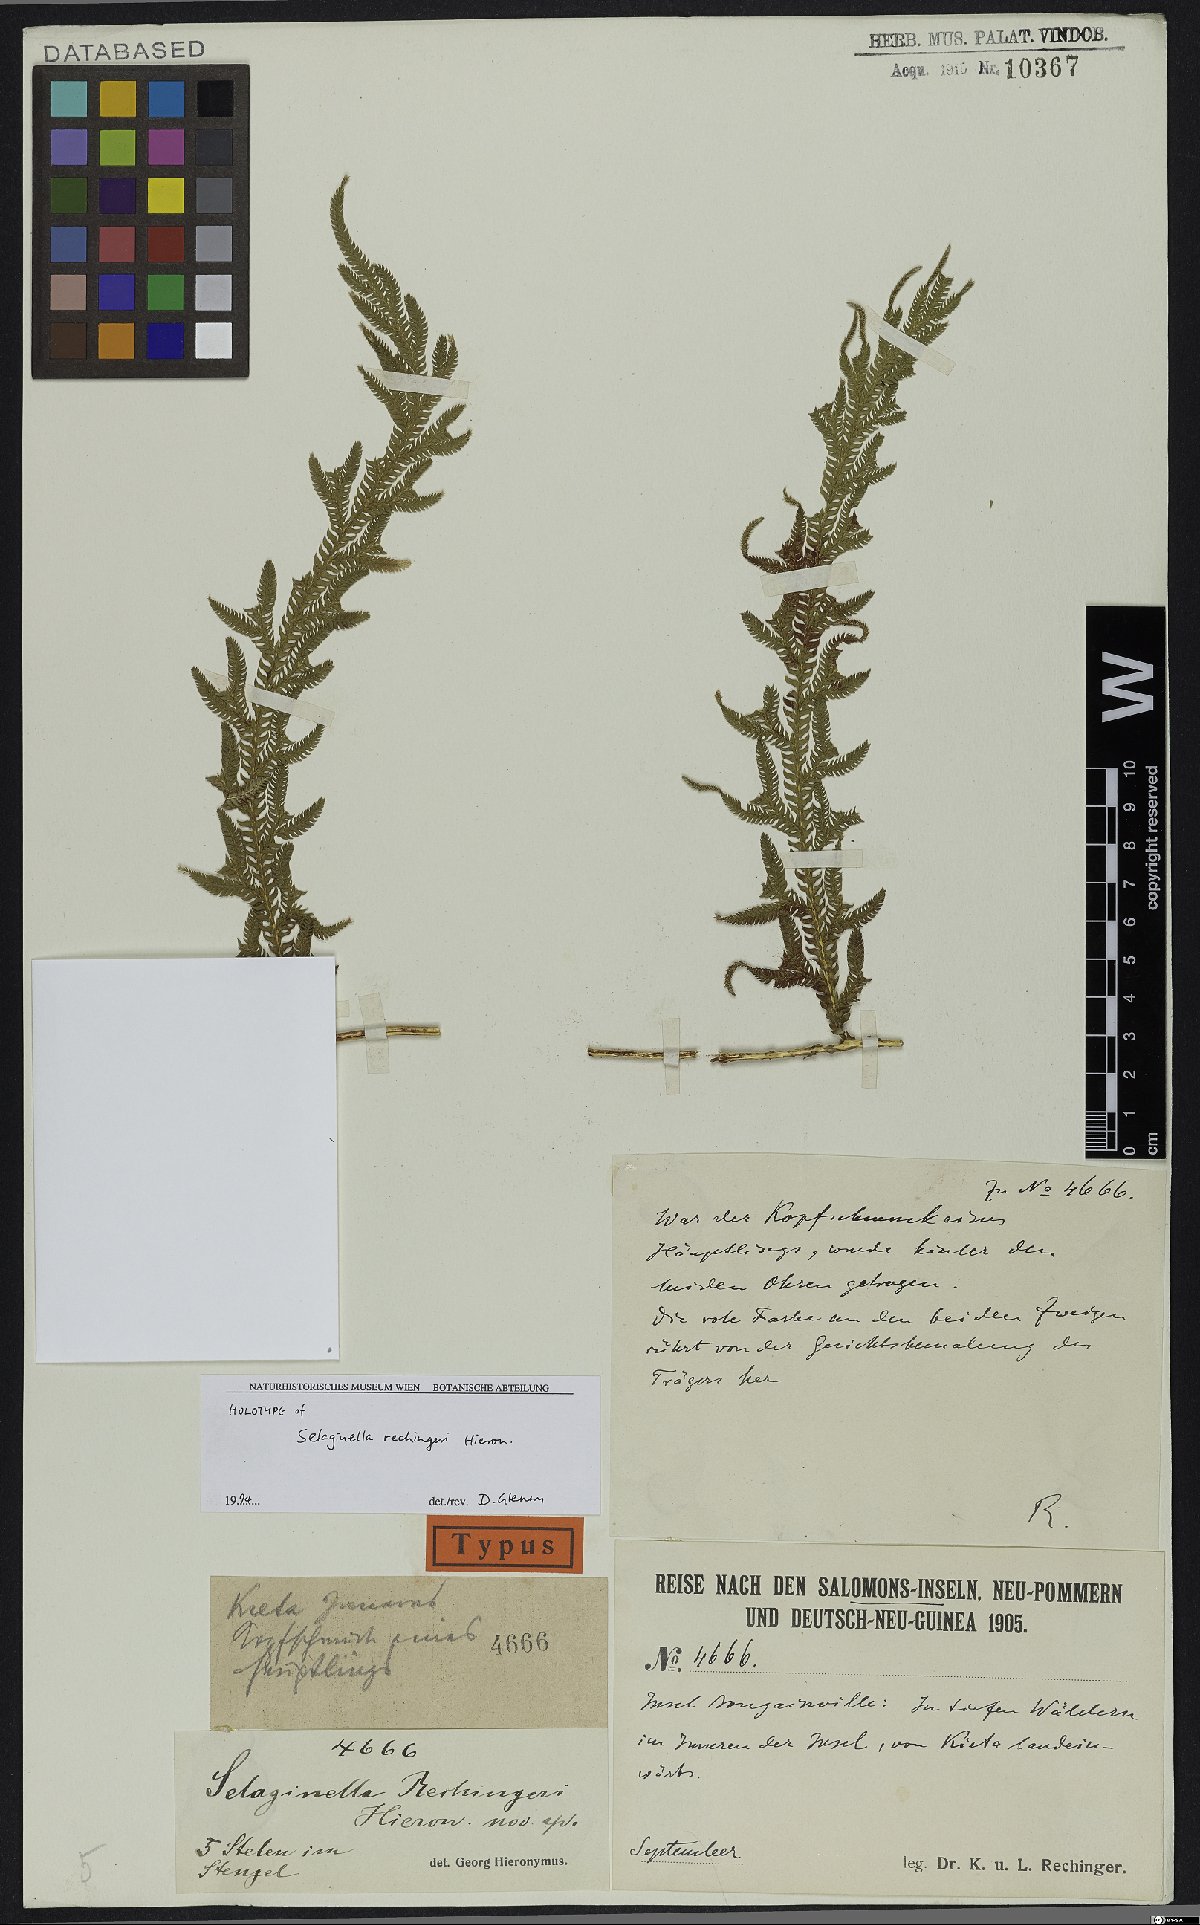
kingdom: Plantae
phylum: Tracheophyta
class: Lycopodiopsida
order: Selaginellales
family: Selaginellaceae
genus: Selaginella
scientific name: Selaginella rechingeri
